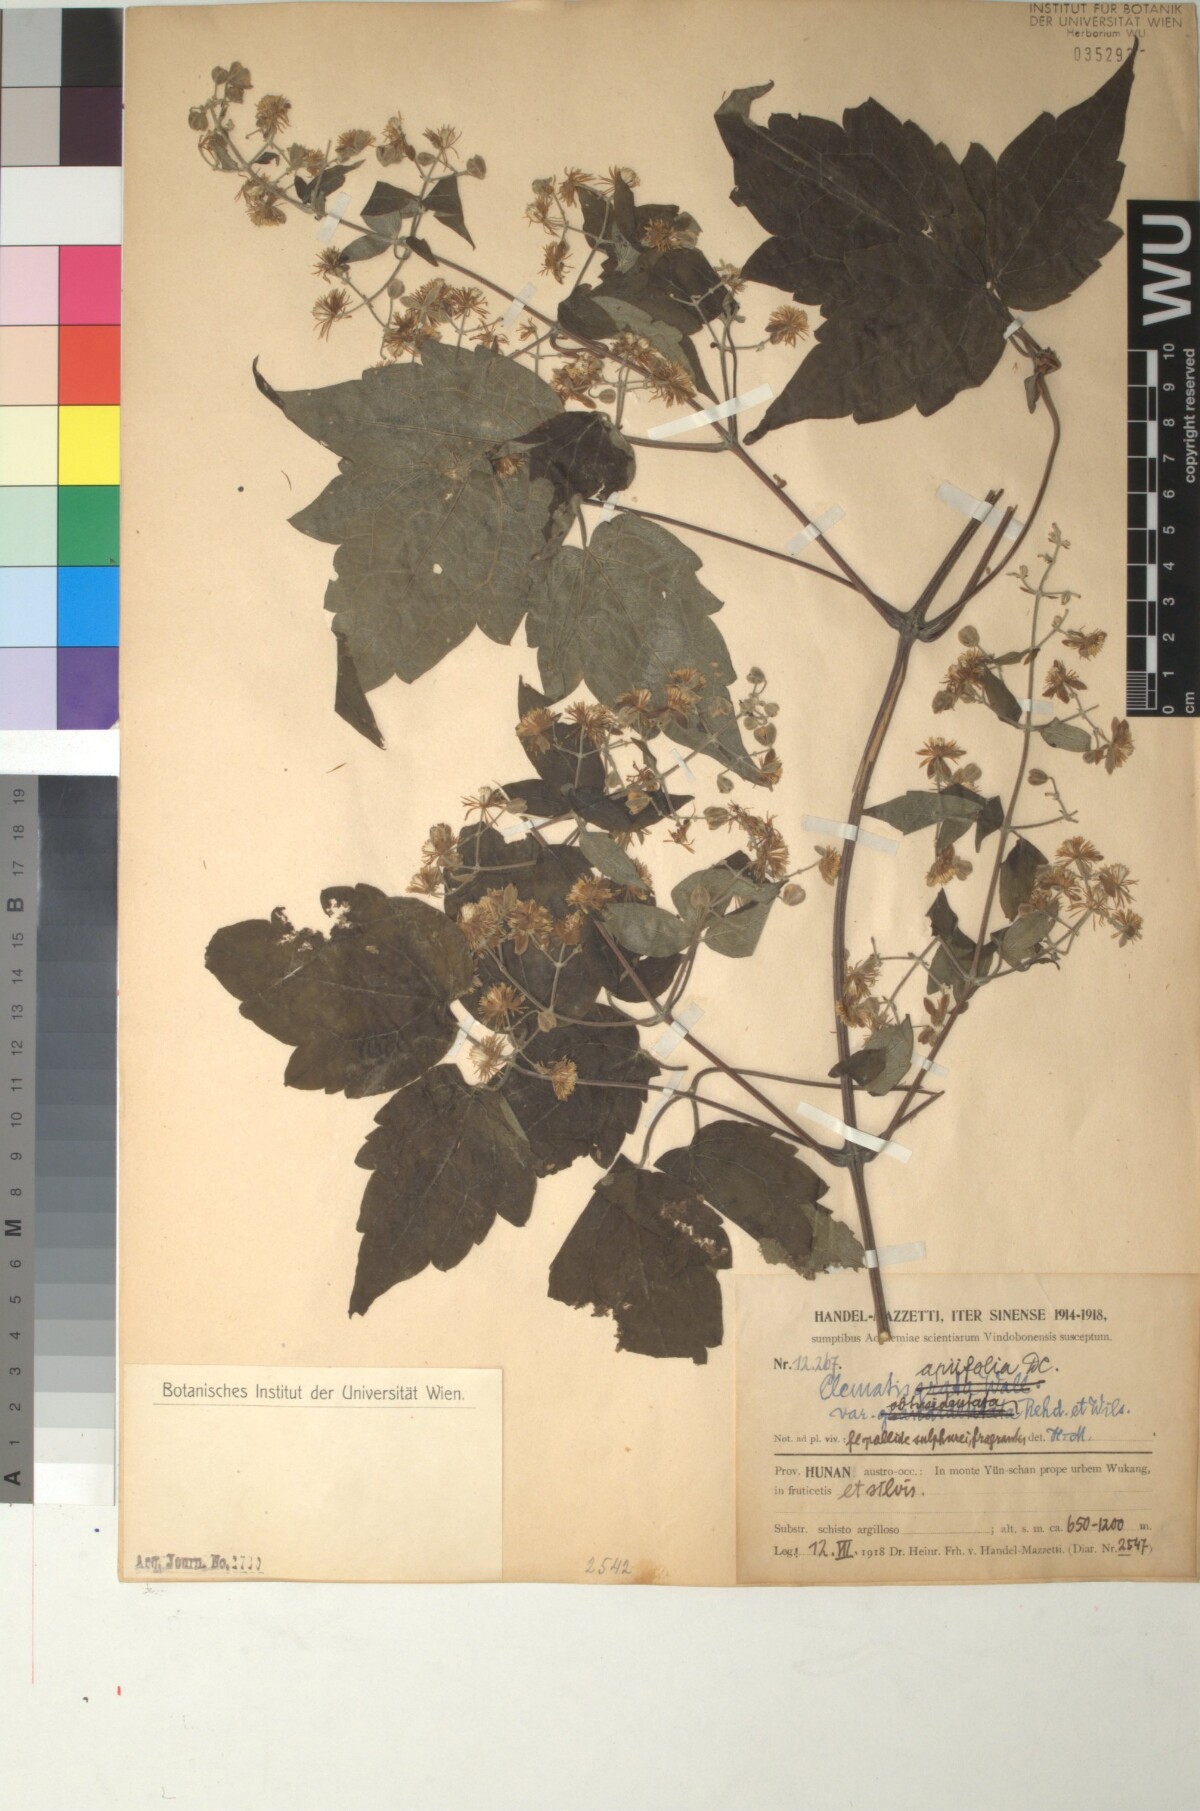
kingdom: Plantae
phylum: Tracheophyta
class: Magnoliopsida
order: Ranunculales
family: Ranunculaceae
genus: Clematis
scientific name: Clematis apiifolia
